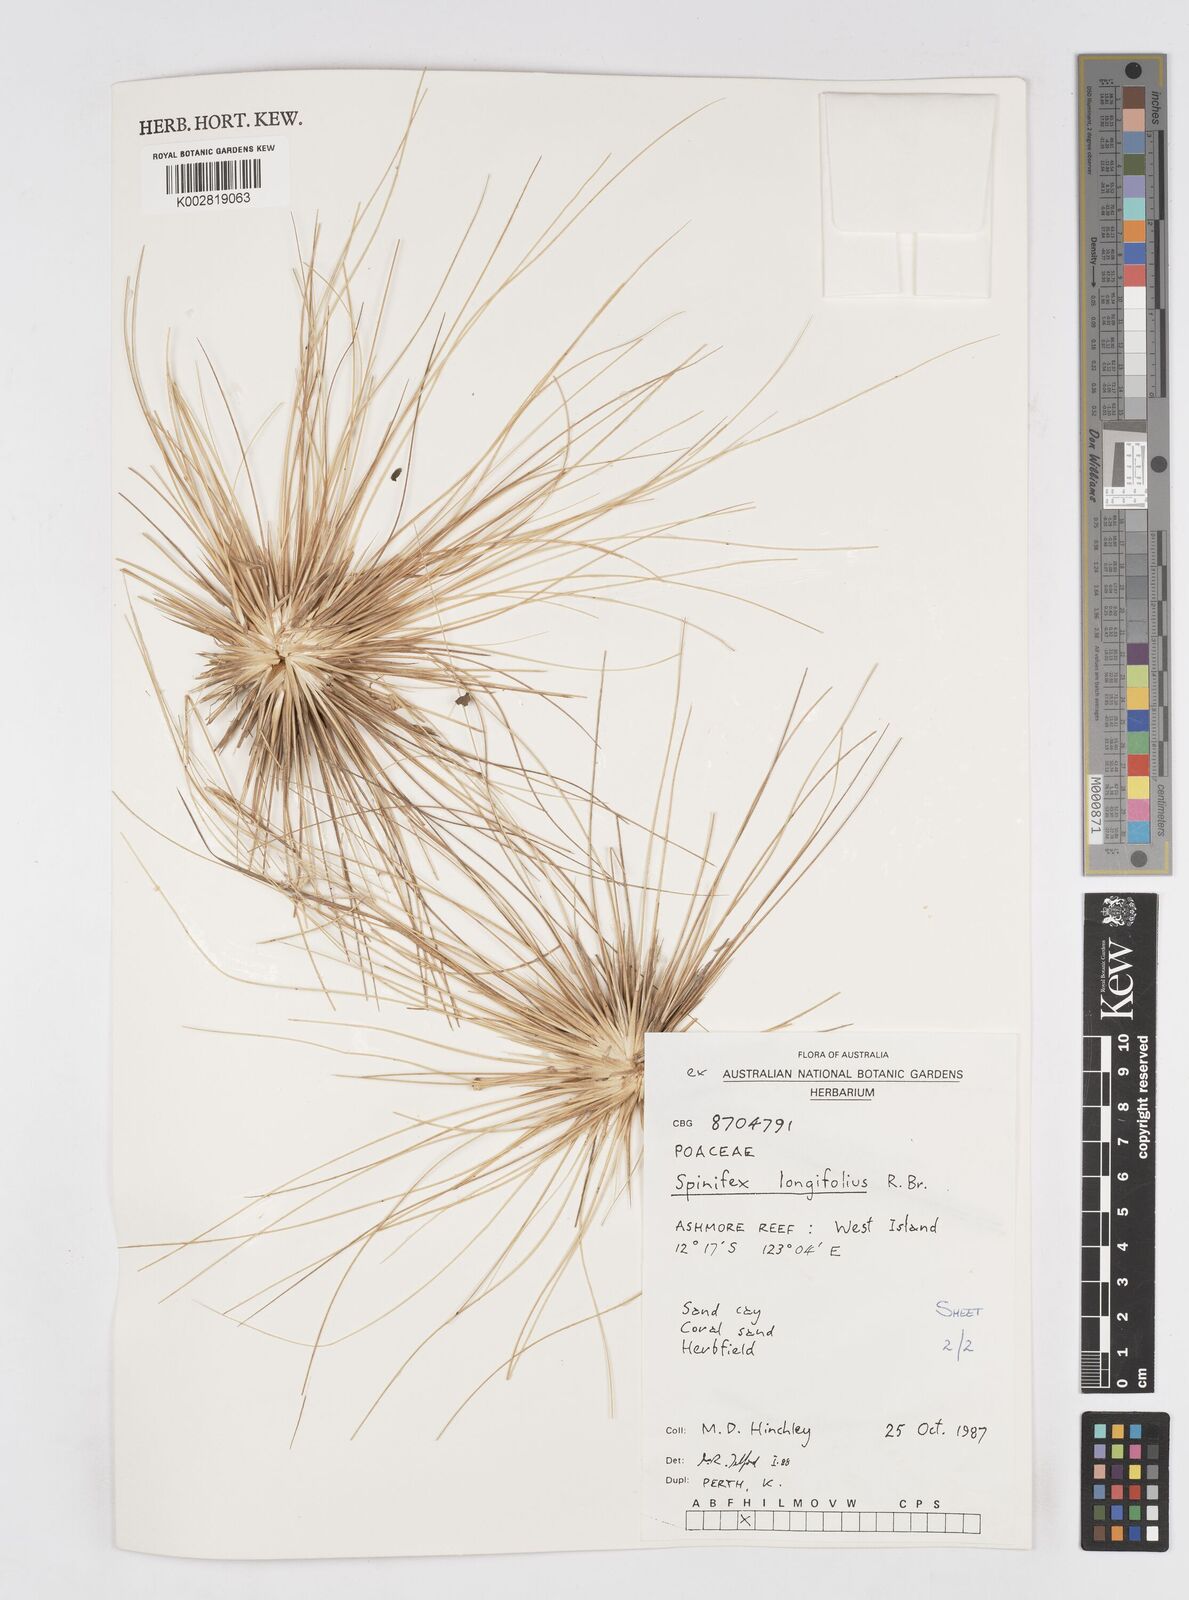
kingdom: Plantae
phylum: Tracheophyta
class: Liliopsida
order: Poales
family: Poaceae
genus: Spinifex
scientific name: Spinifex longifolius
